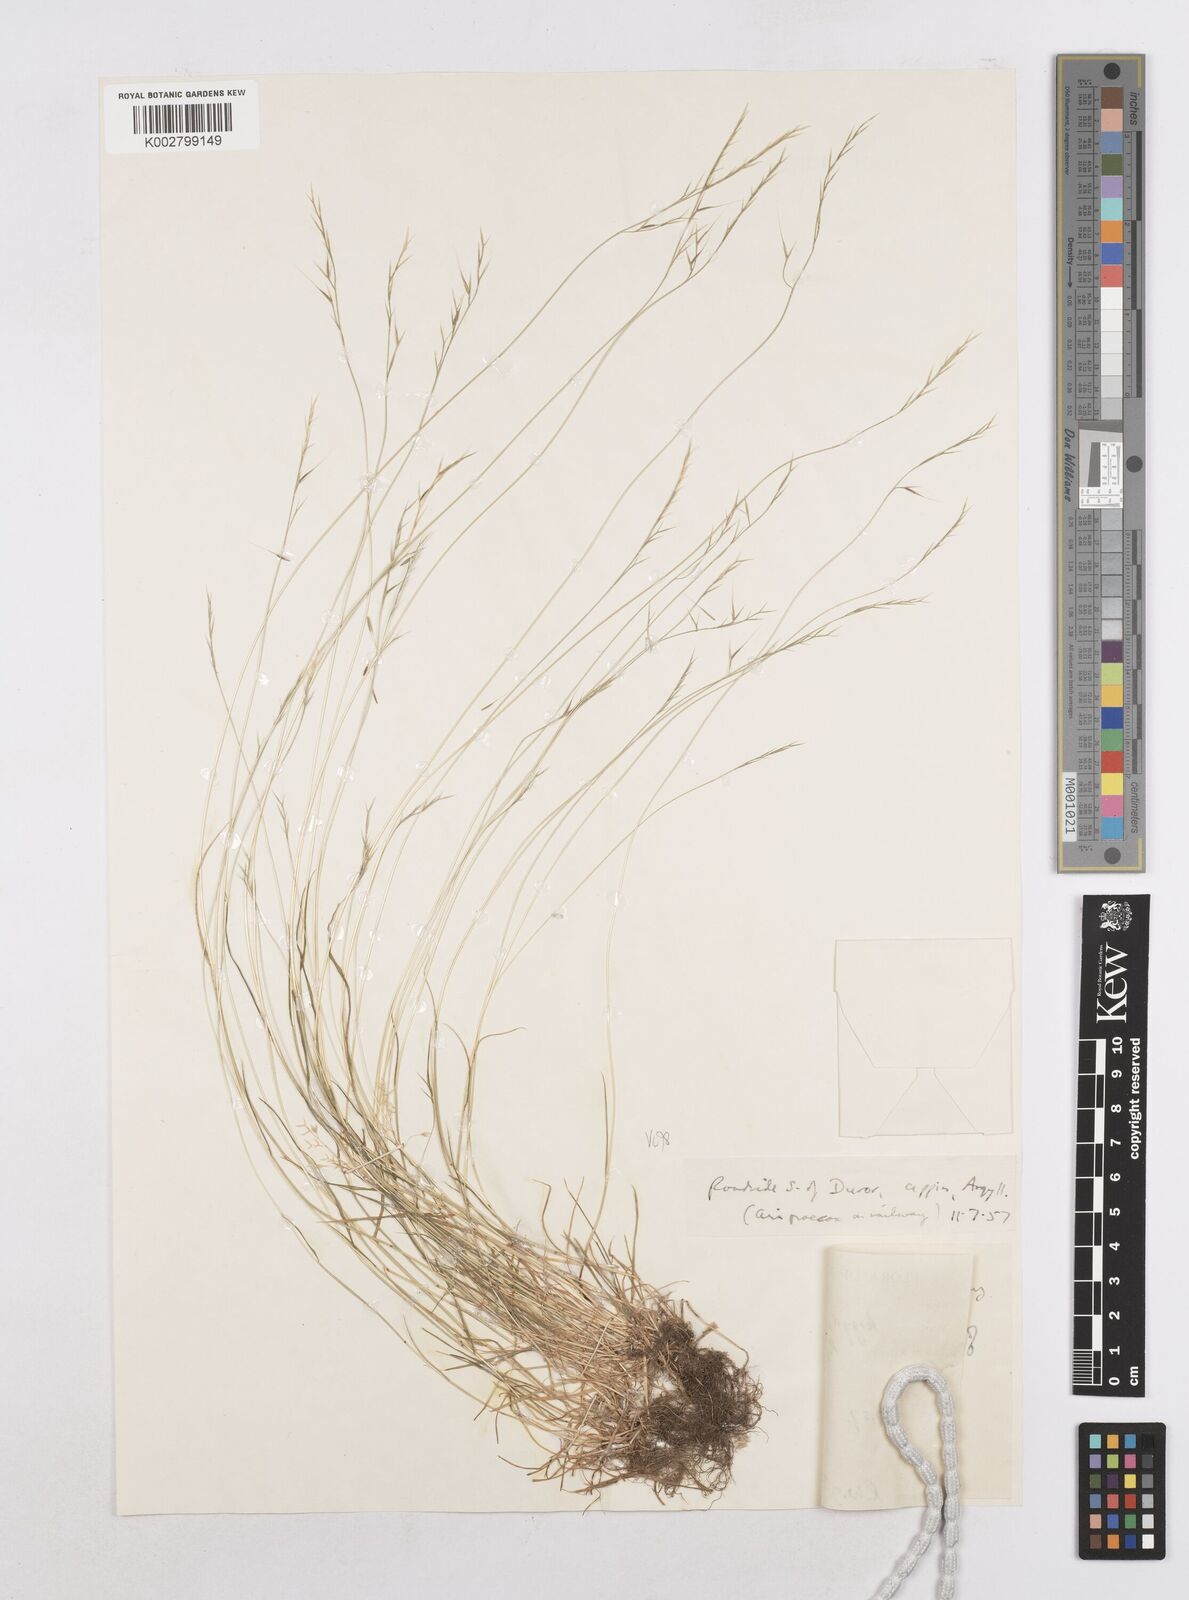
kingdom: Plantae
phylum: Tracheophyta
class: Liliopsida
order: Poales
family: Poaceae
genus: Festuca
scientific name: Festuca bromoides
